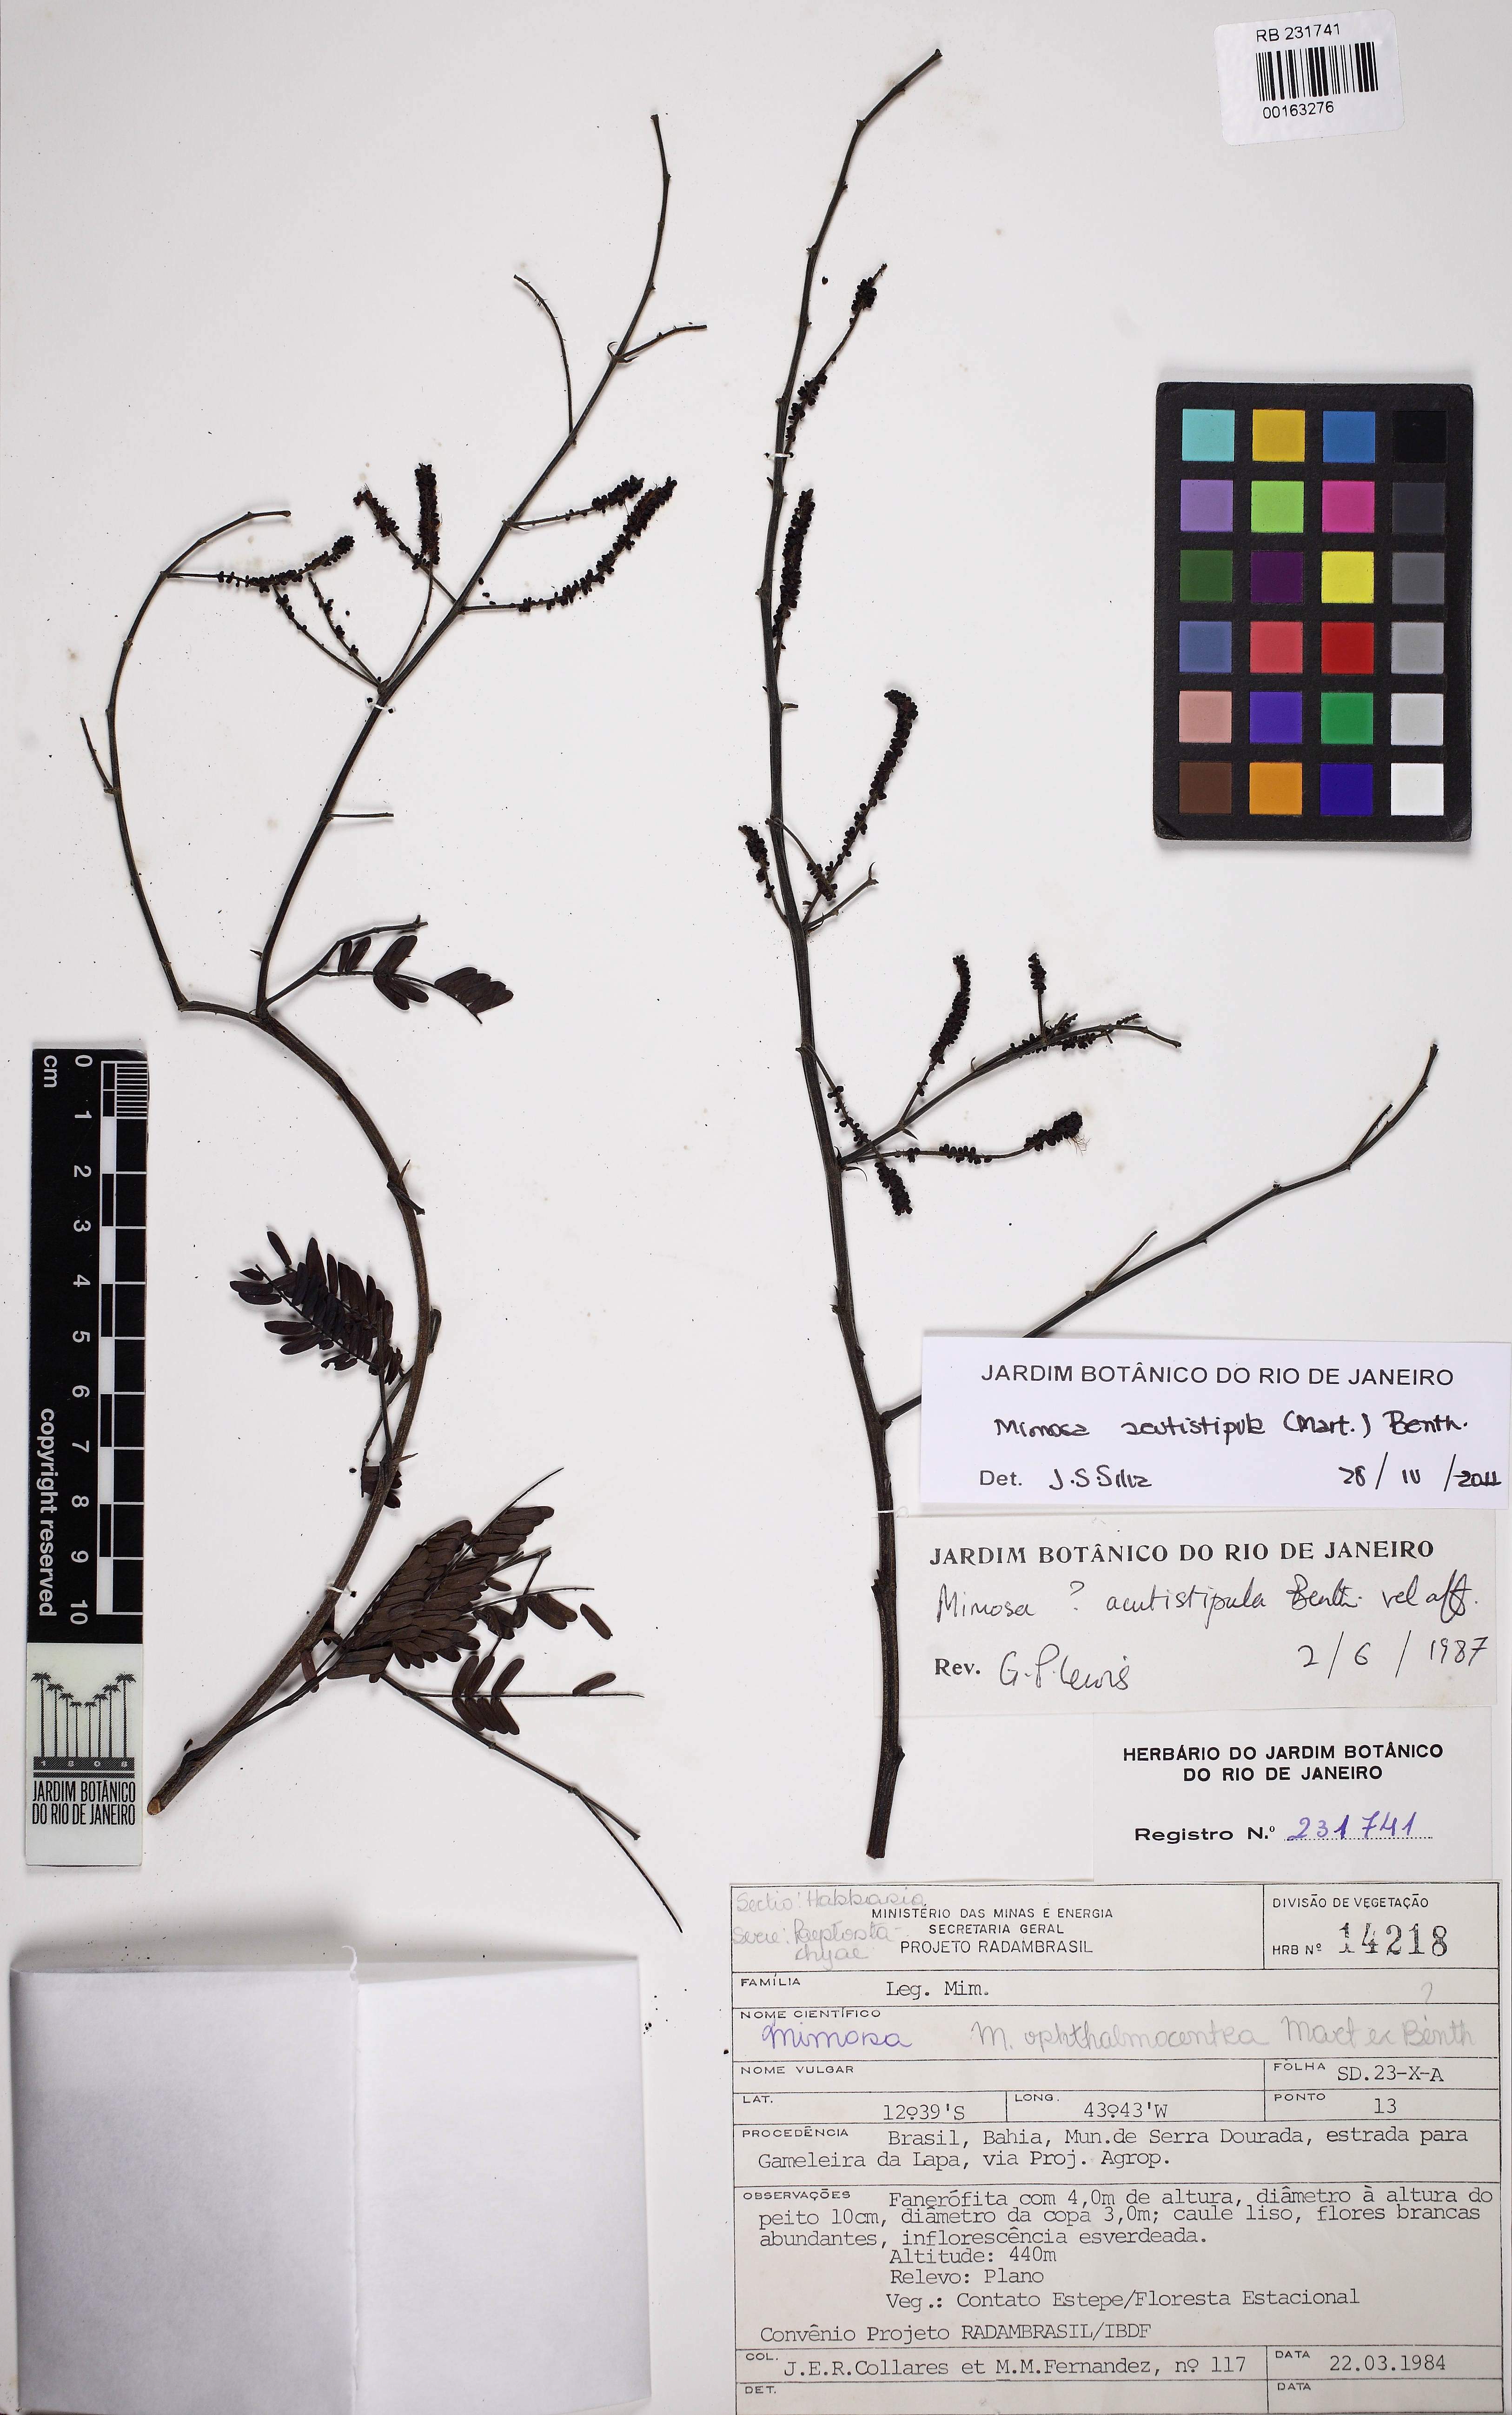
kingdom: Plantae
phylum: Tracheophyta
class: Magnoliopsida
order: Fabales
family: Fabaceae
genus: Mimosa
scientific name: Mimosa acutistipula
